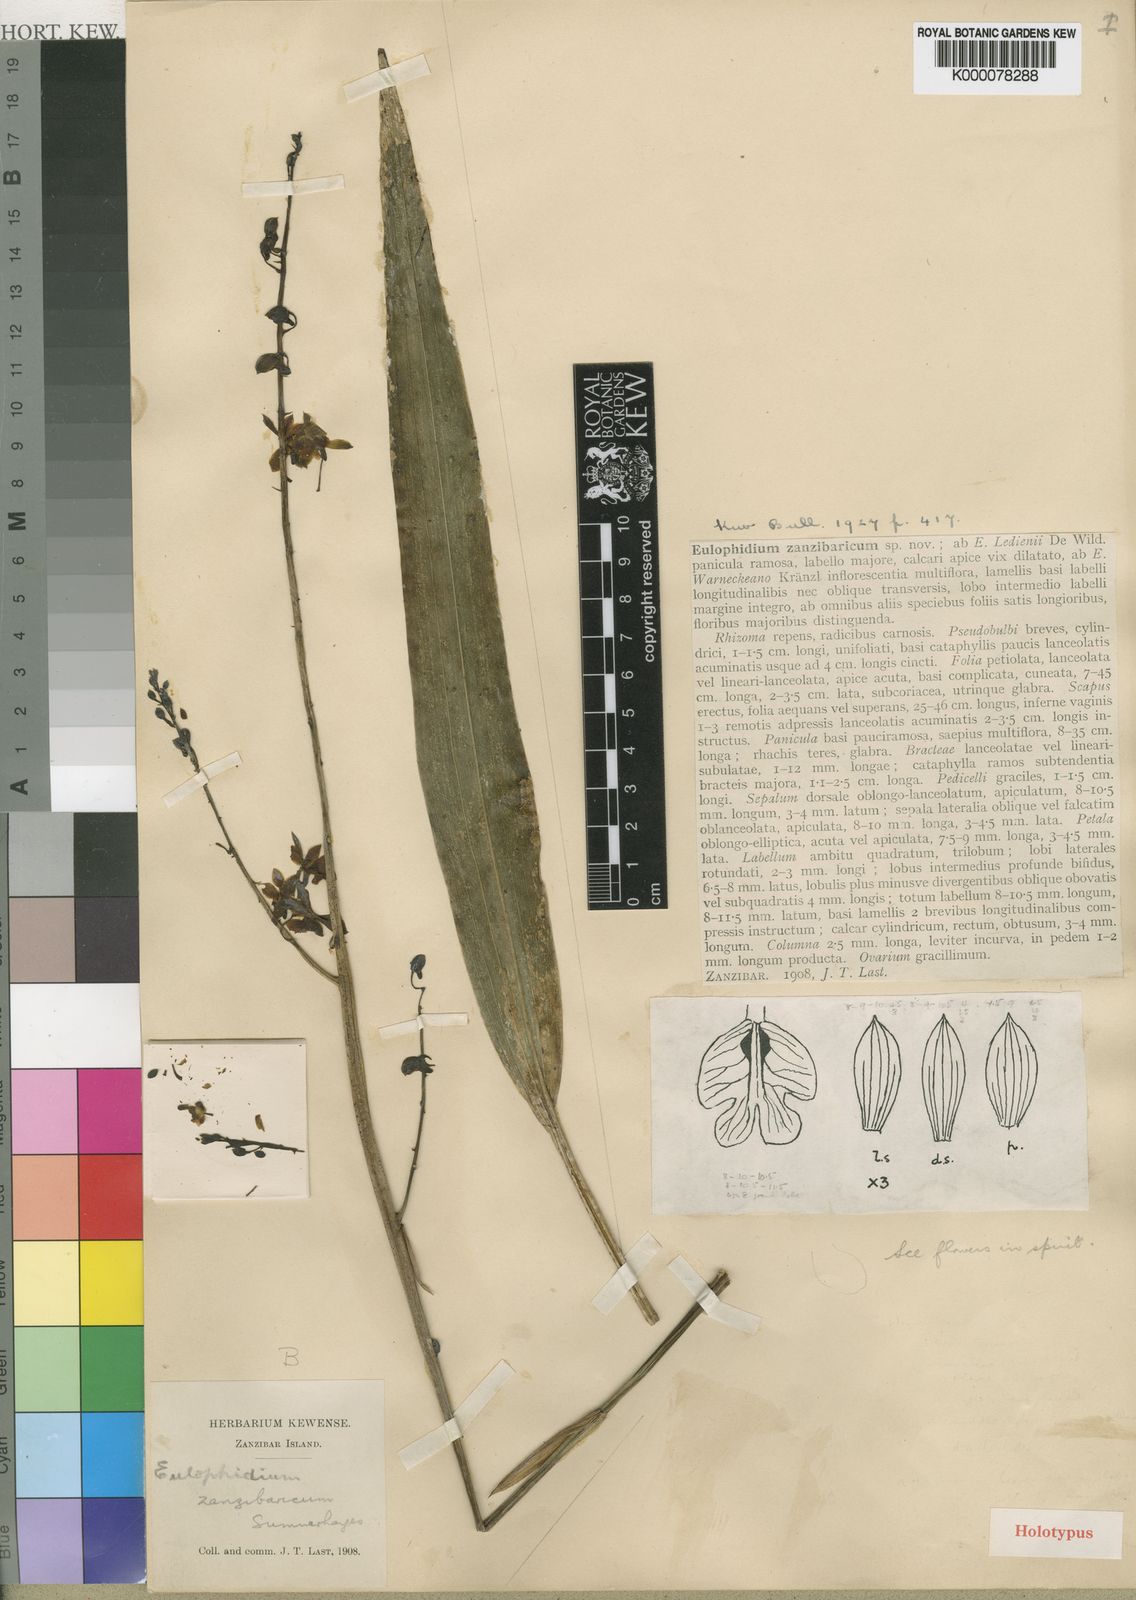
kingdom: Plantae
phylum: Tracheophyta
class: Liliopsida
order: Asparagales
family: Orchidaceae
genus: Eulophia
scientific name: Eulophia zanzibarica
